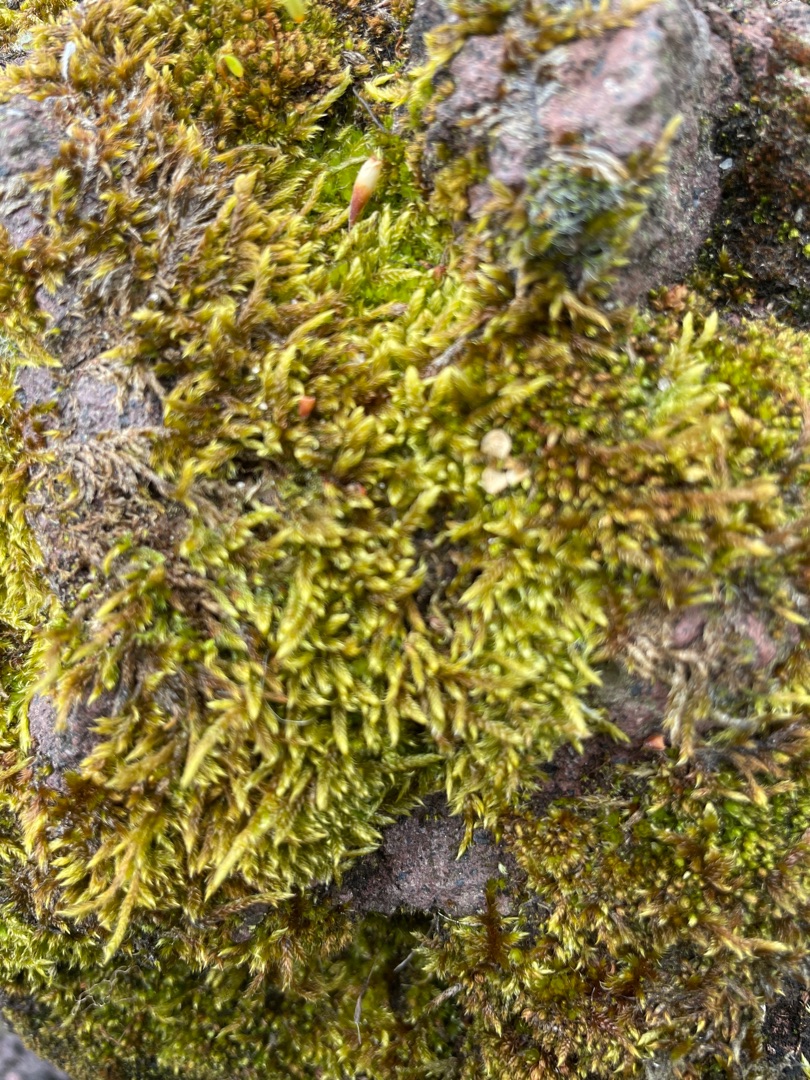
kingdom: Plantae
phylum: Bryophyta
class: Bryopsida
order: Hypnales
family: Hypnaceae
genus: Hypnum
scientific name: Hypnum cupressiforme
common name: Almindelig cypresmos
